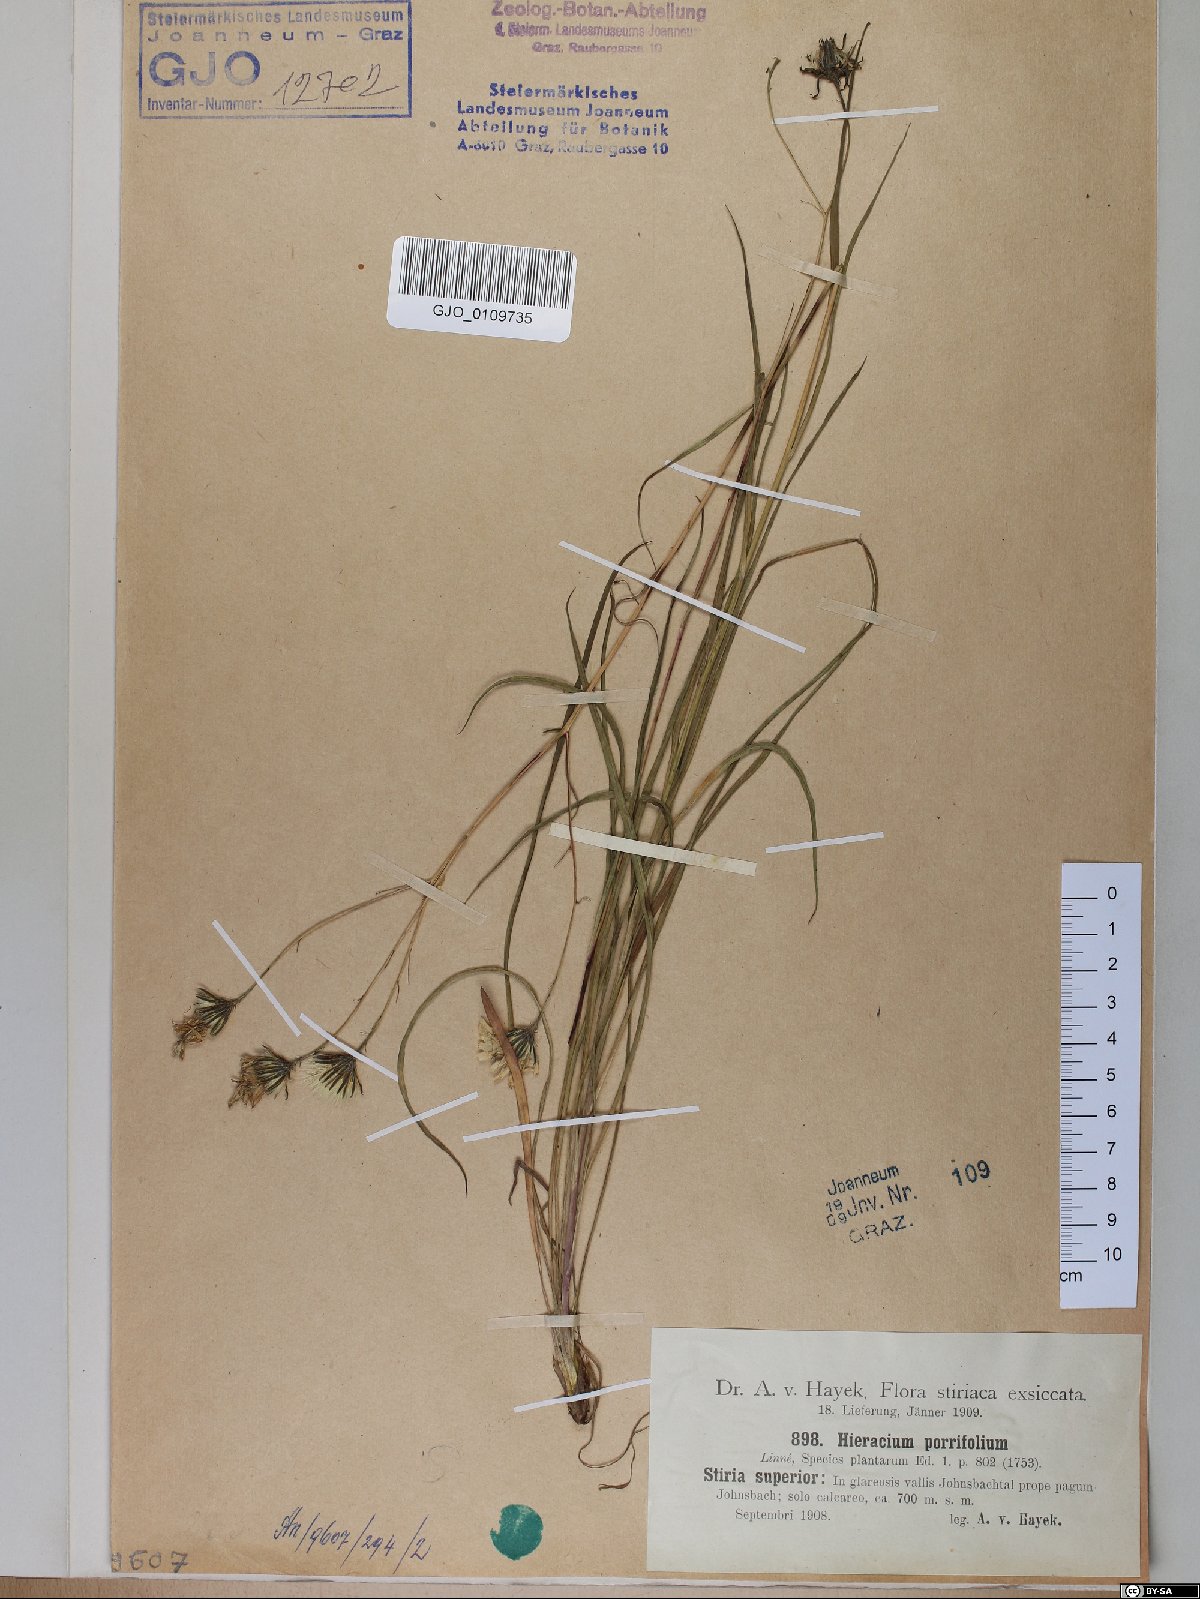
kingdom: Plantae
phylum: Tracheophyta
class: Magnoliopsida
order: Asterales
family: Asteraceae
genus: Hieracium
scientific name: Hieracium porrifolium
